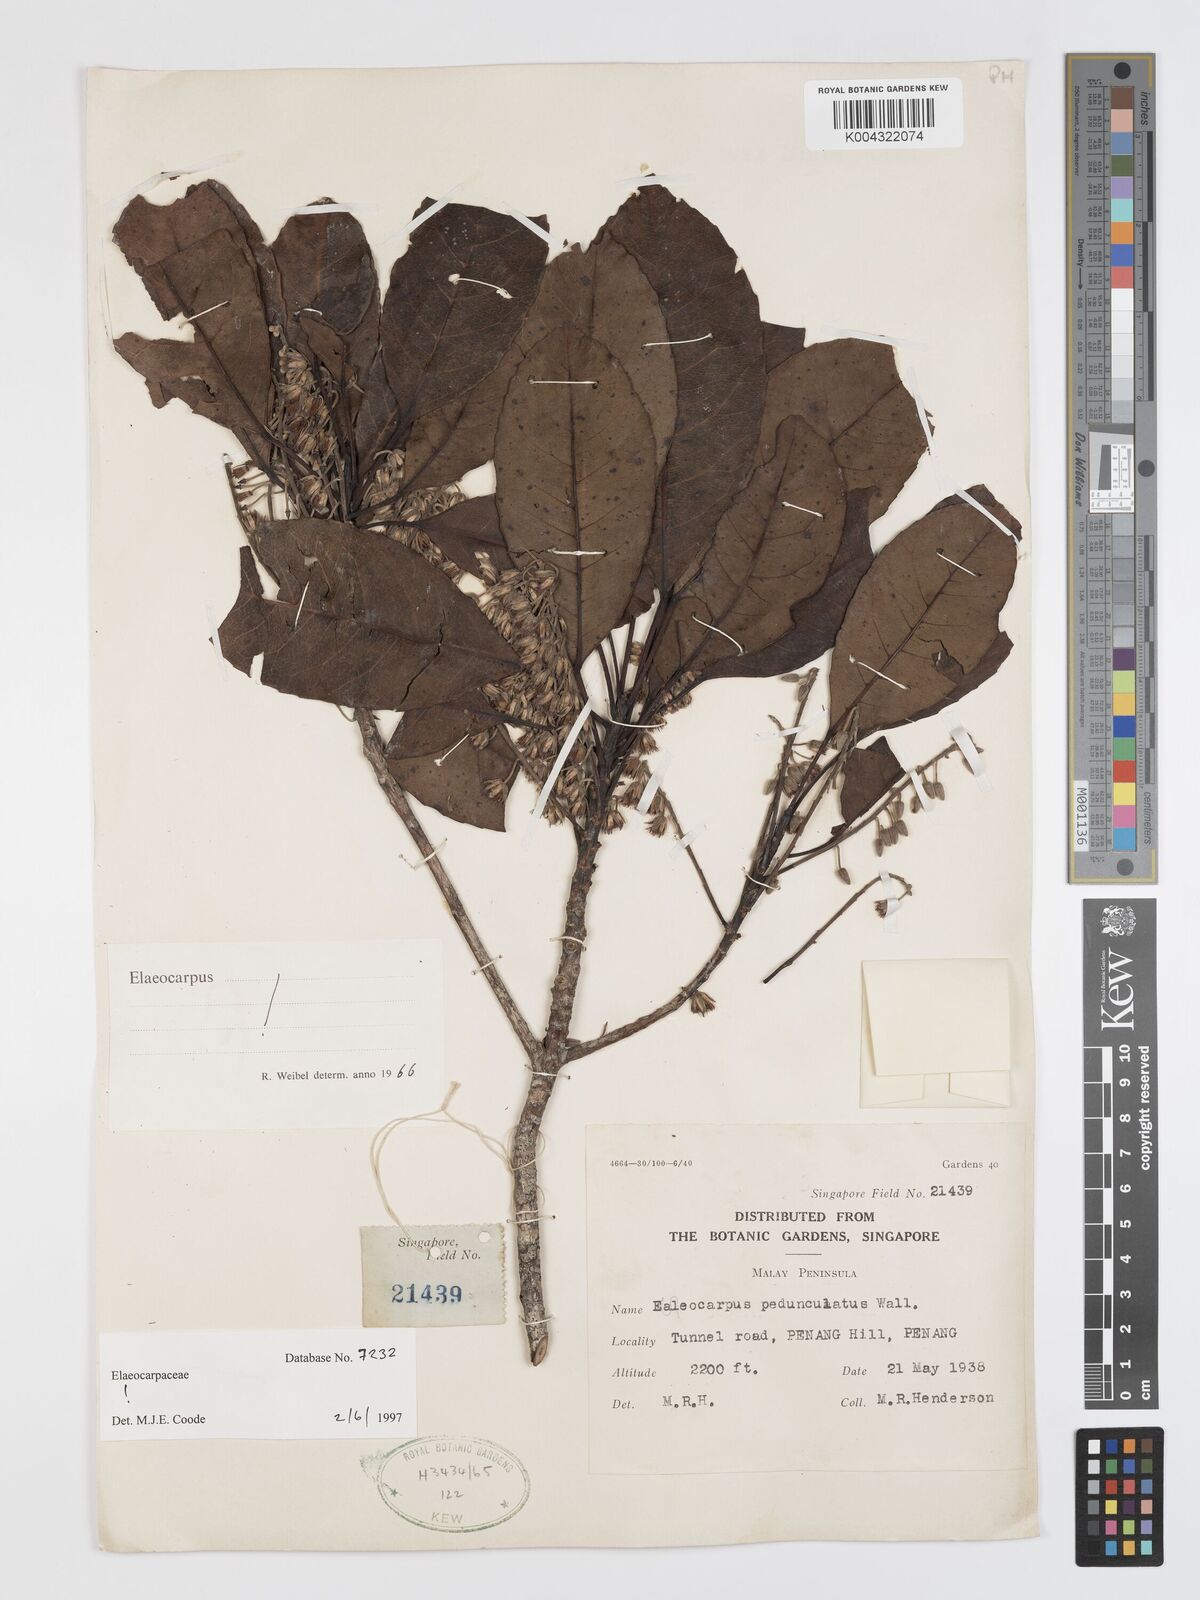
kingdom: Plantae
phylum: Tracheophyta
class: Magnoliopsida
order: Oxalidales
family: Elaeocarpaceae
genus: Elaeocarpus
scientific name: Elaeocarpus pedunculatus
